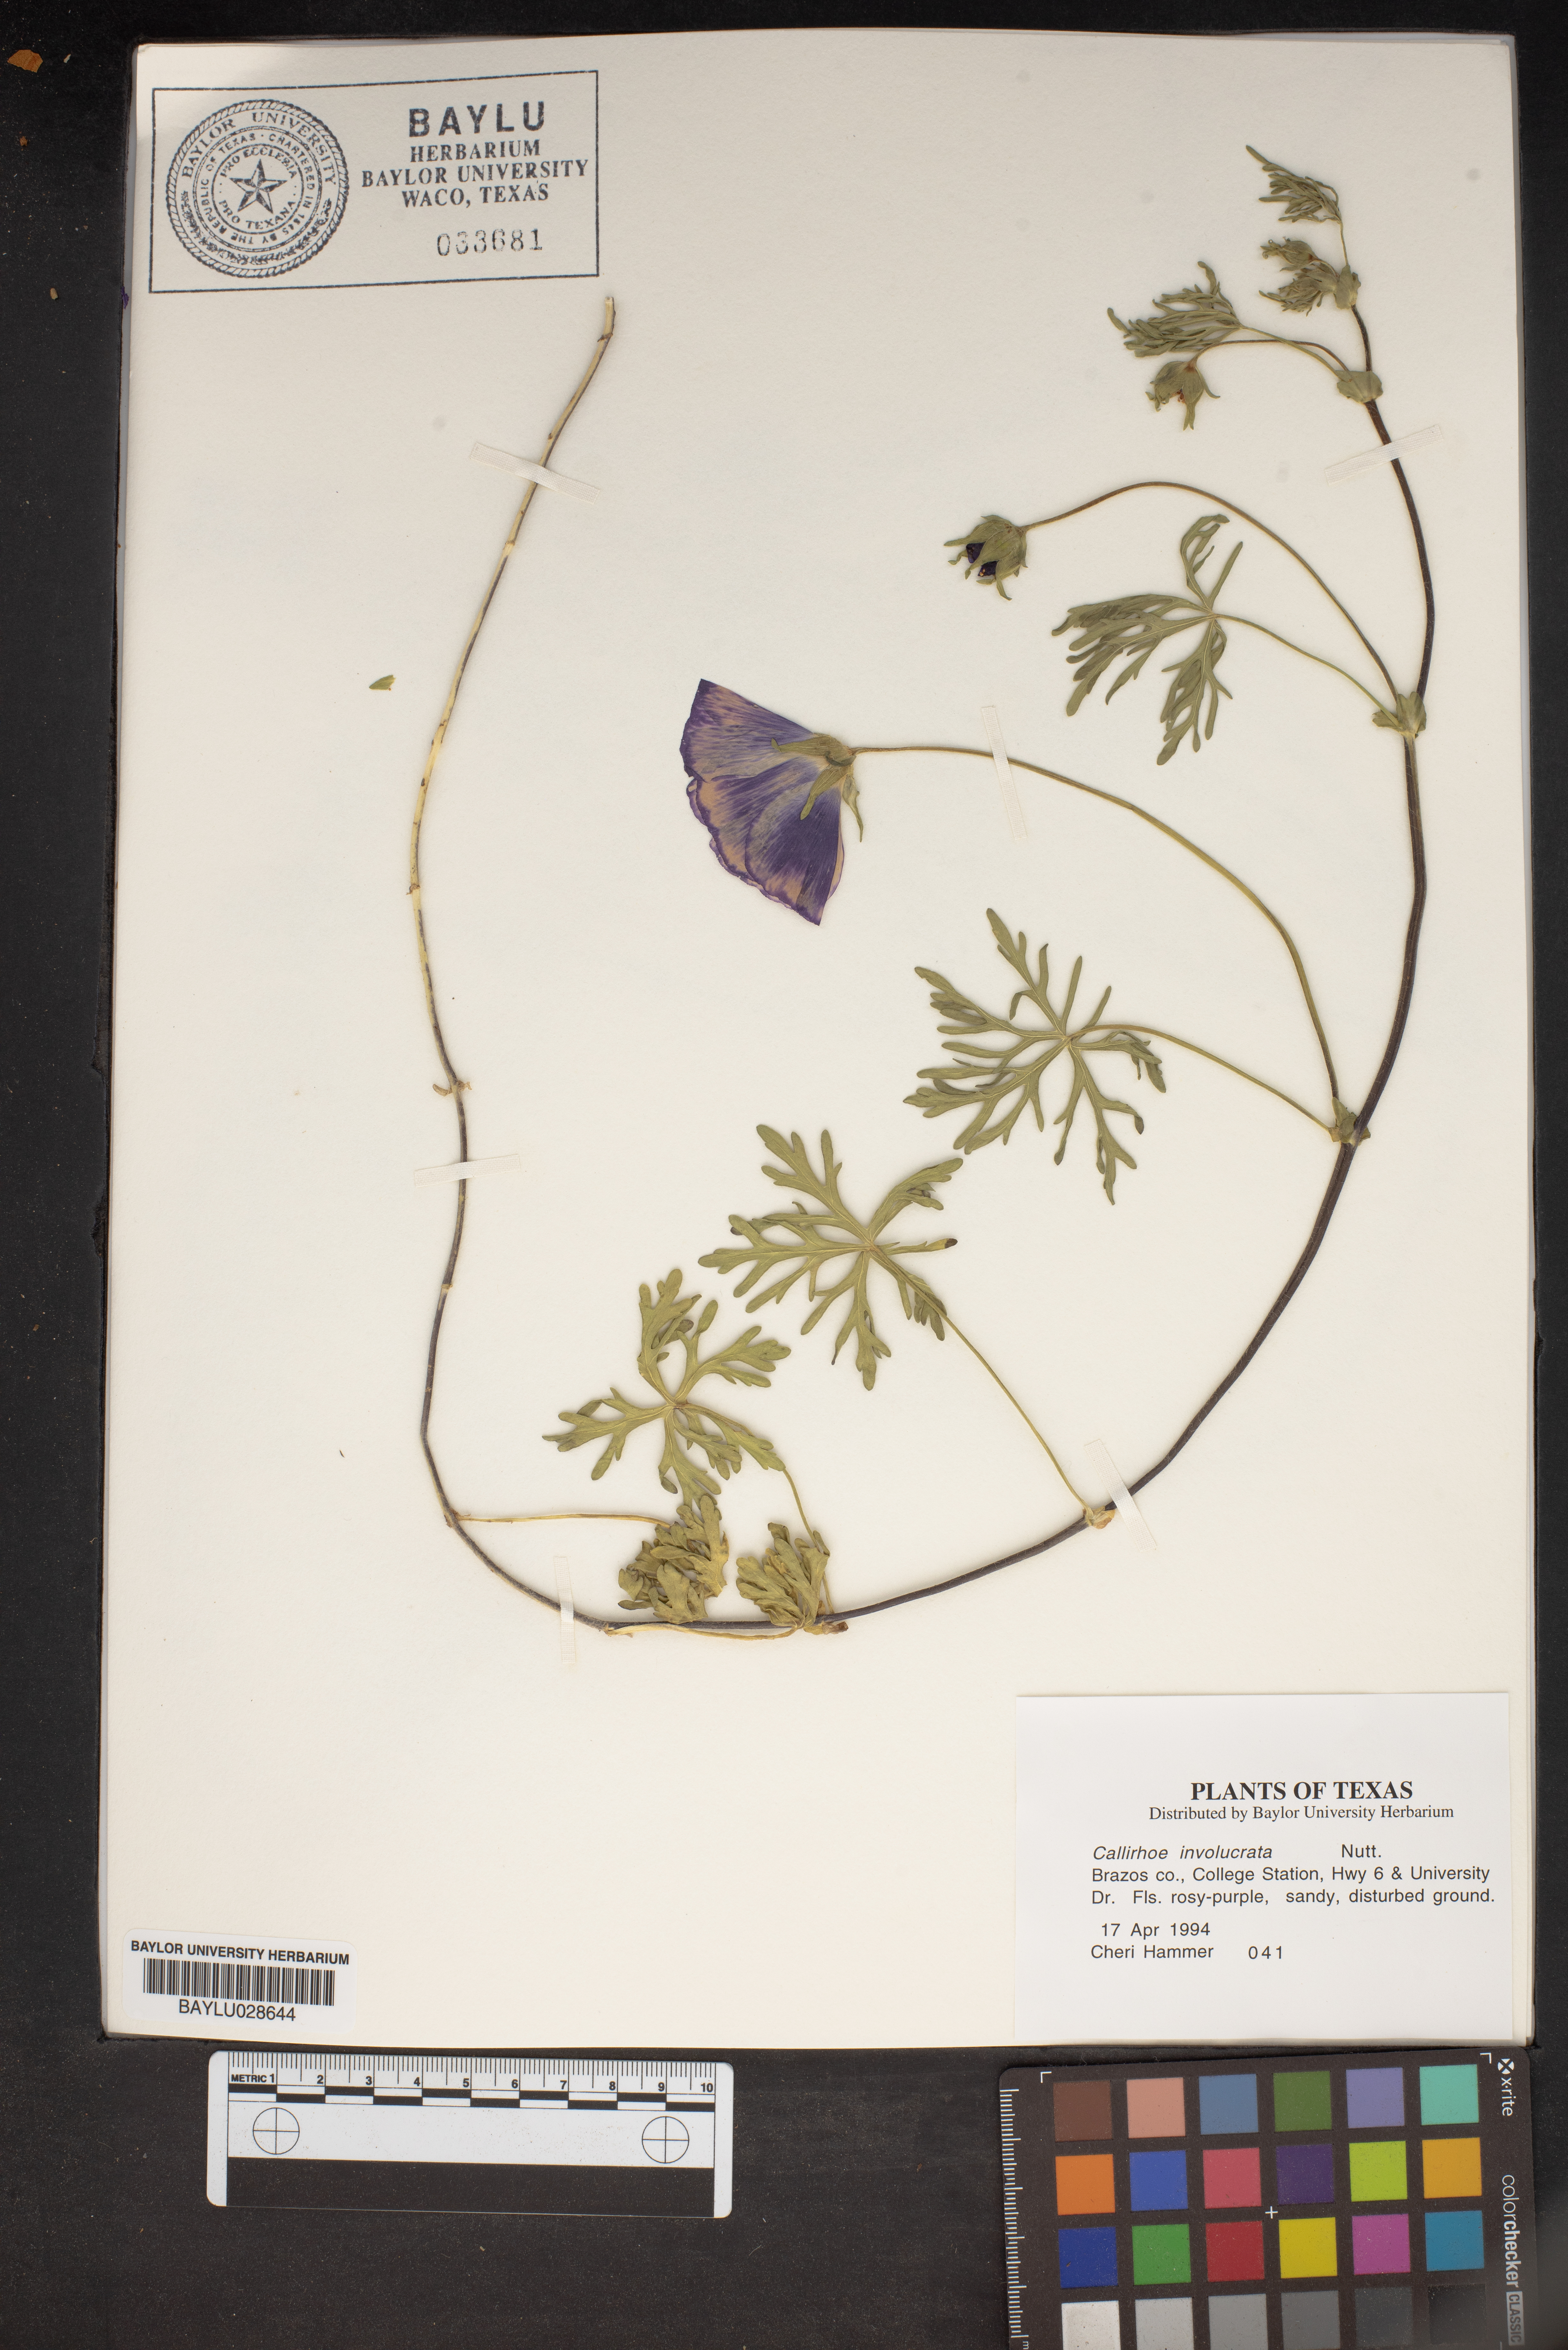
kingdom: Plantae
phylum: Tracheophyta
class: Magnoliopsida
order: Malvales
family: Malvaceae
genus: Callirhoe
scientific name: Callirhoe involucrata
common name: Purple poppy-mallow
